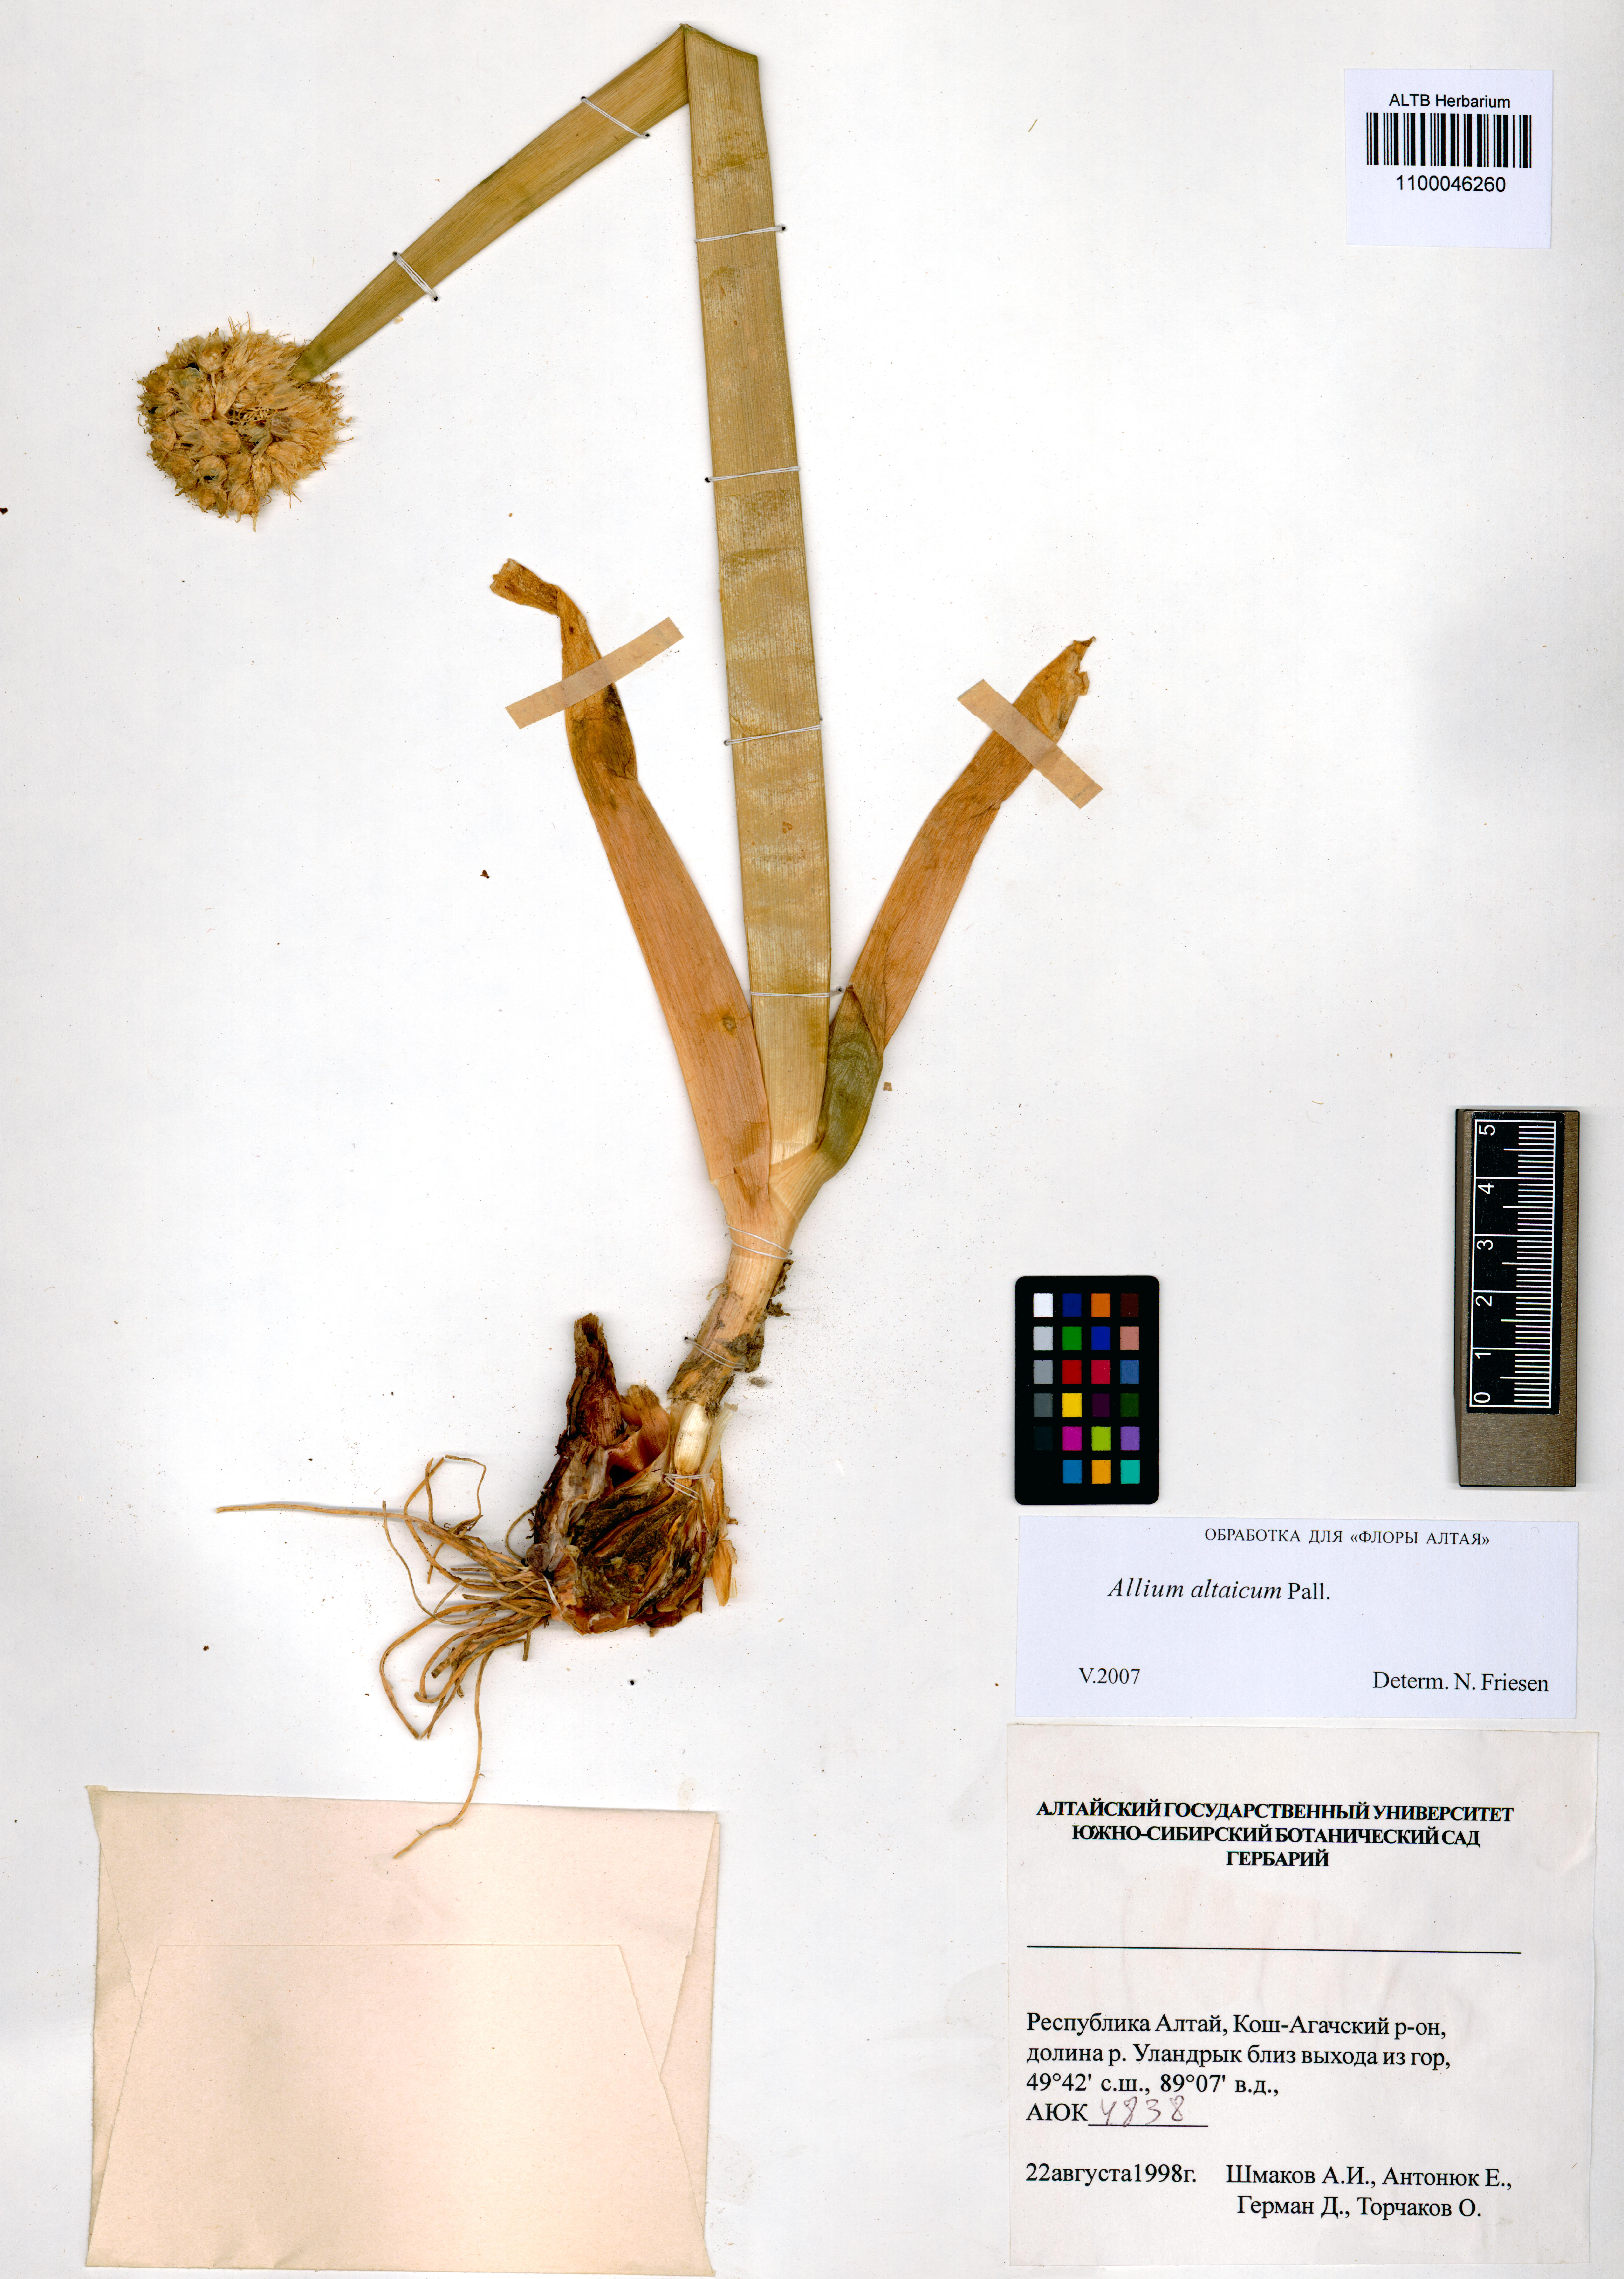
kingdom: Plantae
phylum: Tracheophyta
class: Liliopsida
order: Asparagales
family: Amaryllidaceae
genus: Allium
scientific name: Allium altaicum
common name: Altai onion
